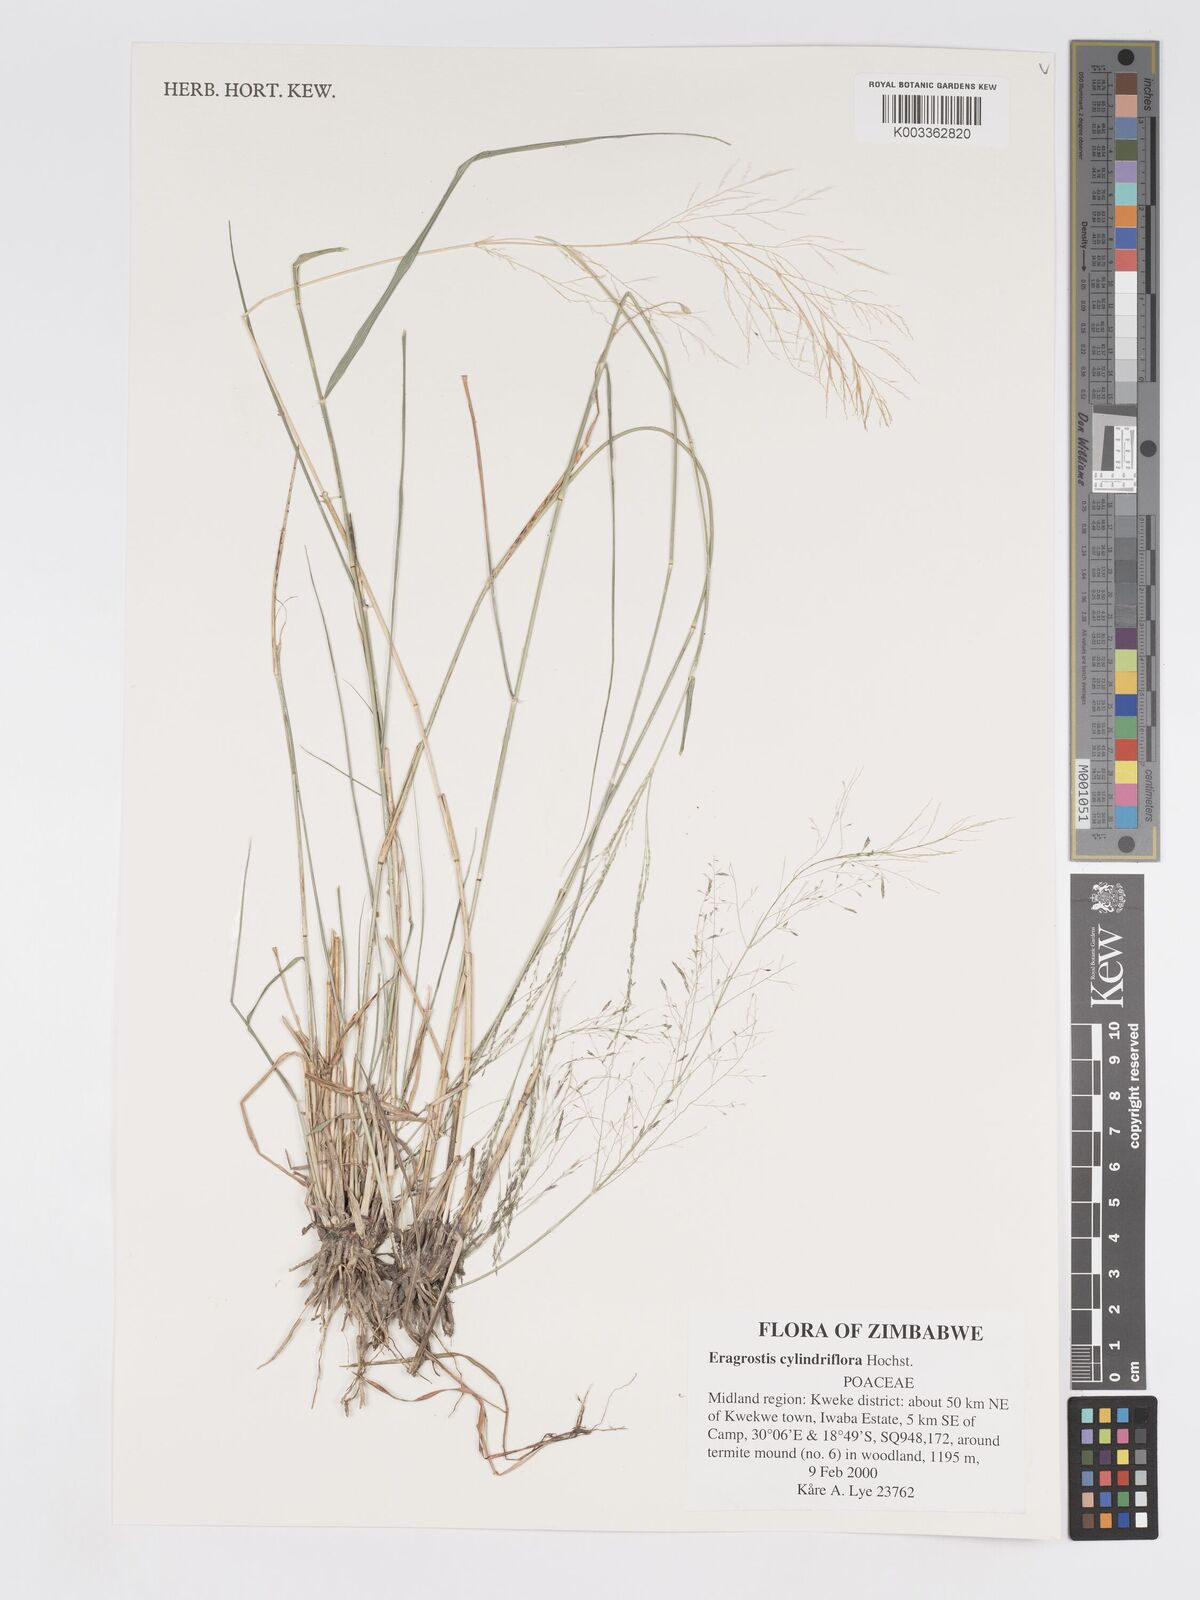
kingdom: Plantae
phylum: Tracheophyta
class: Liliopsida
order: Poales
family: Poaceae
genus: Eragrostis
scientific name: Eragrostis cylindriflora
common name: Cylinderflower lovegrass
